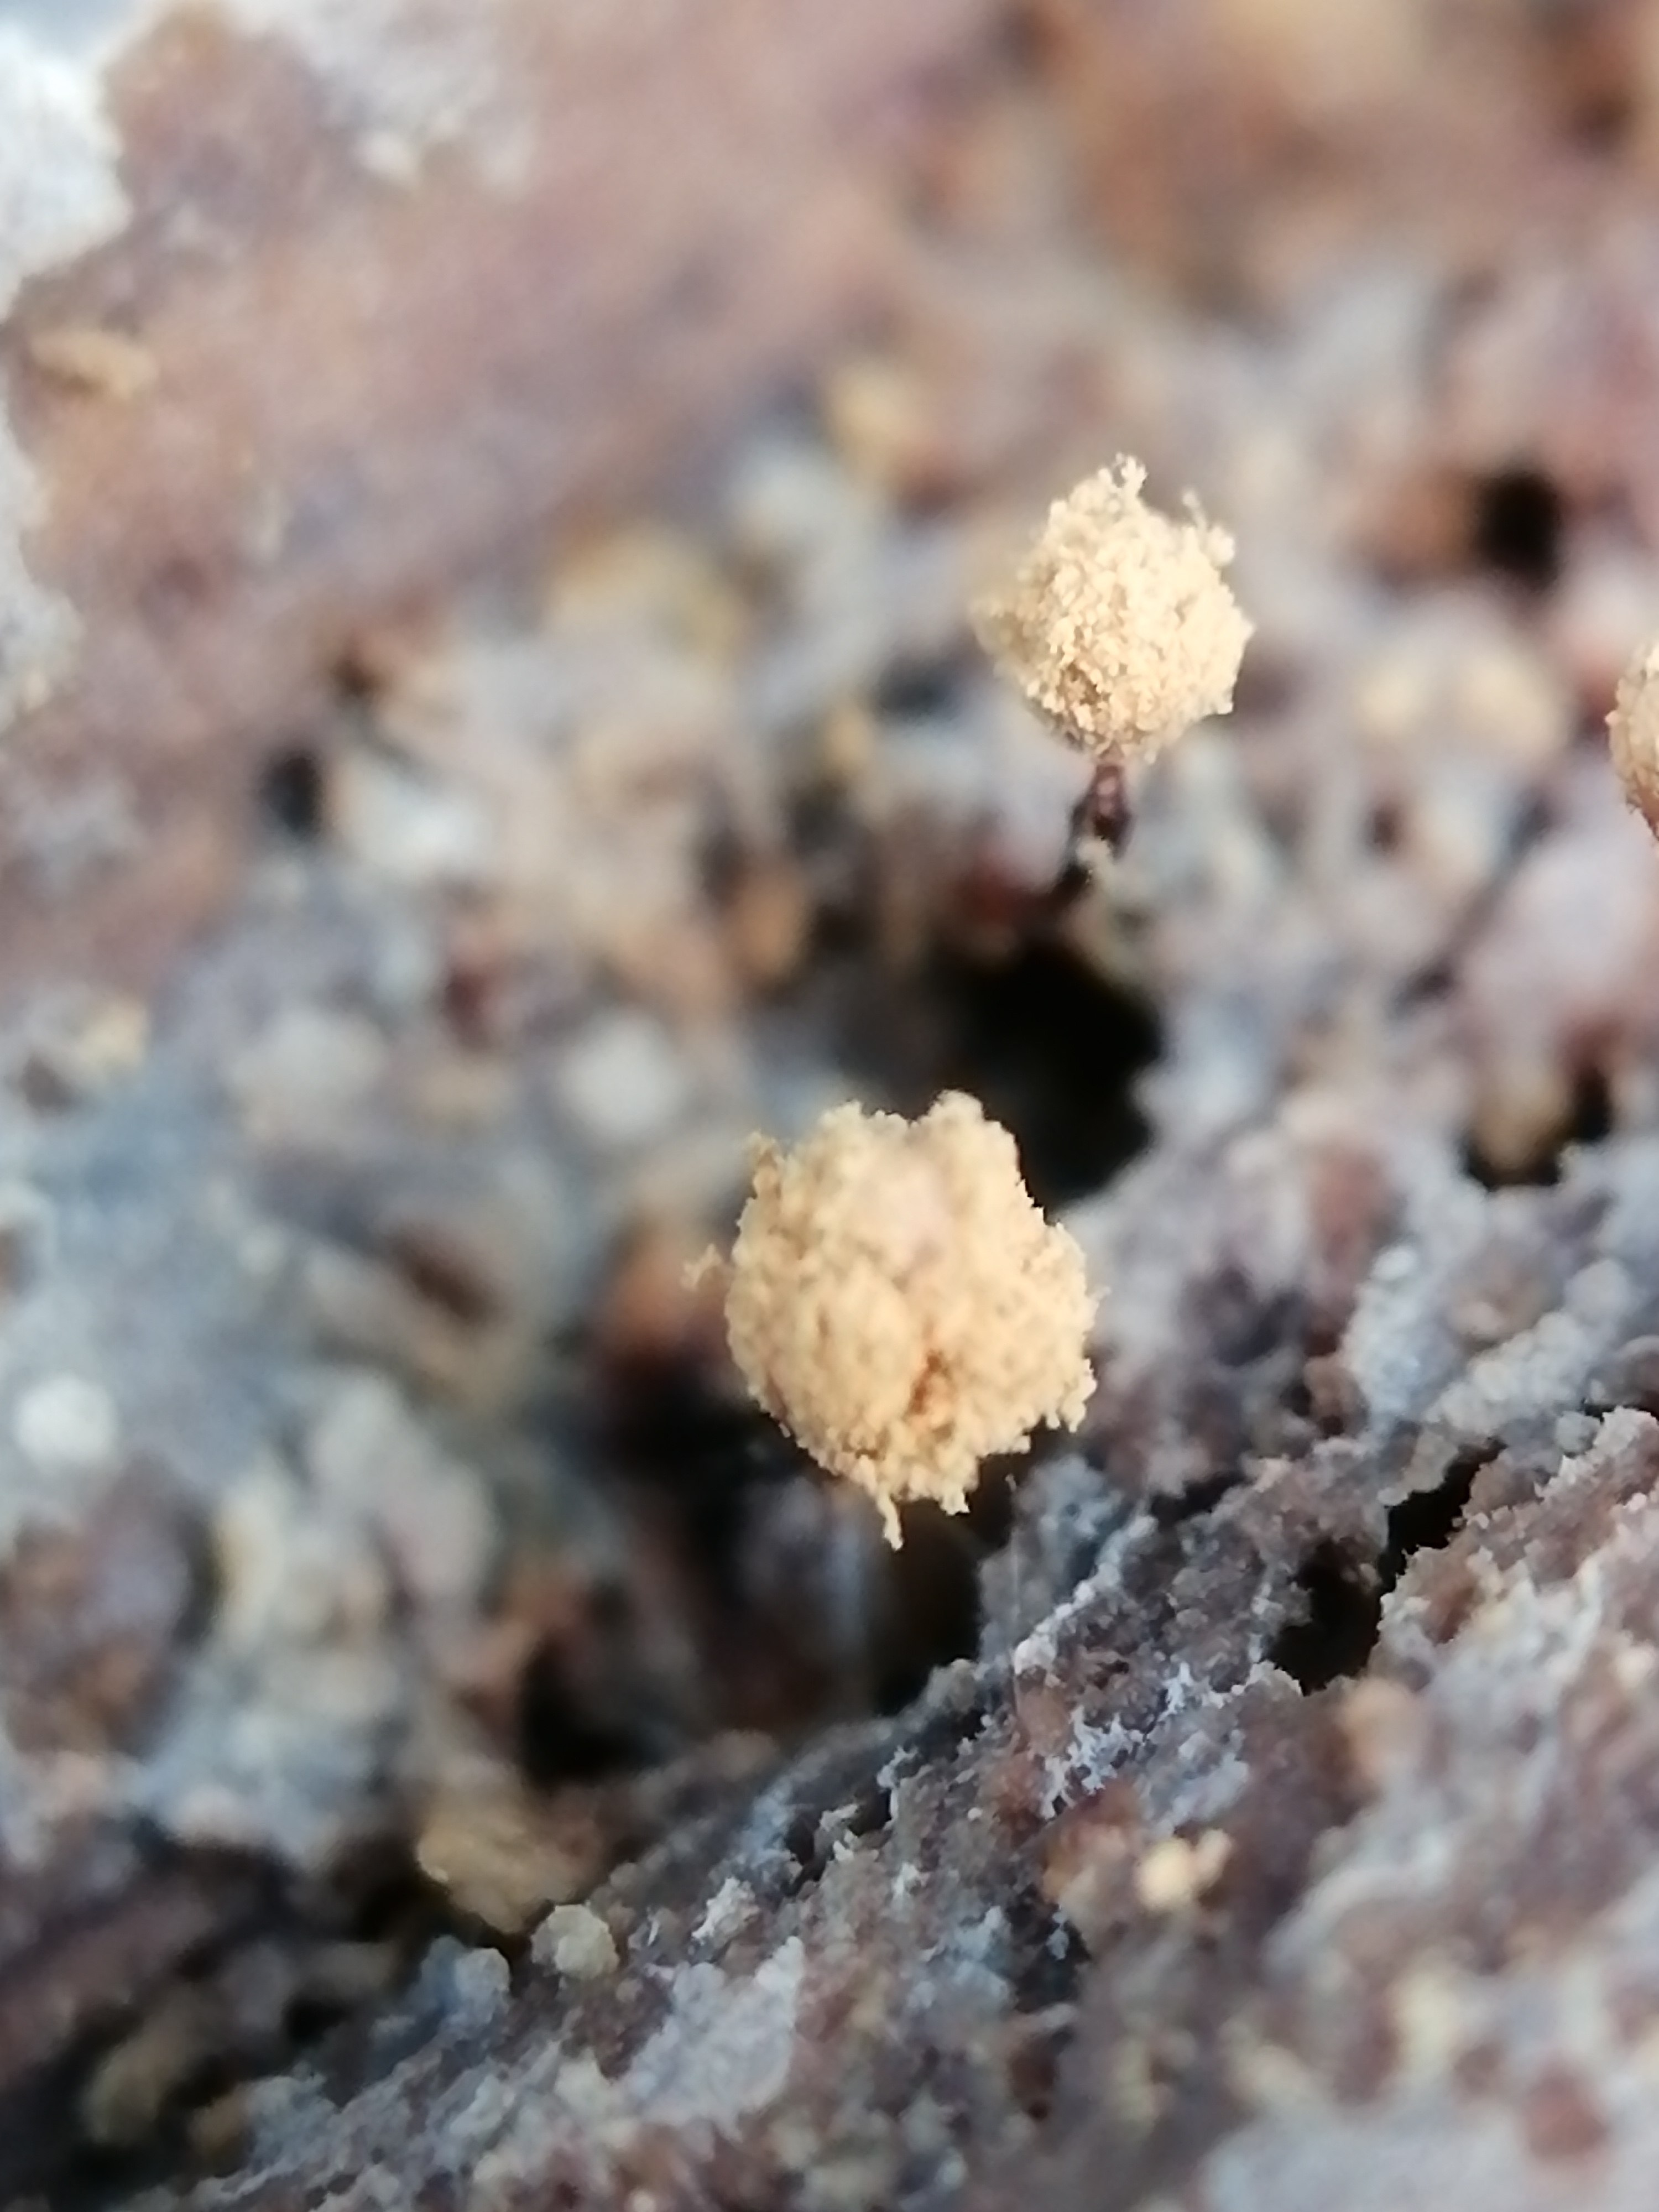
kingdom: Protozoa
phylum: Mycetozoa
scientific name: Mycetozoa
